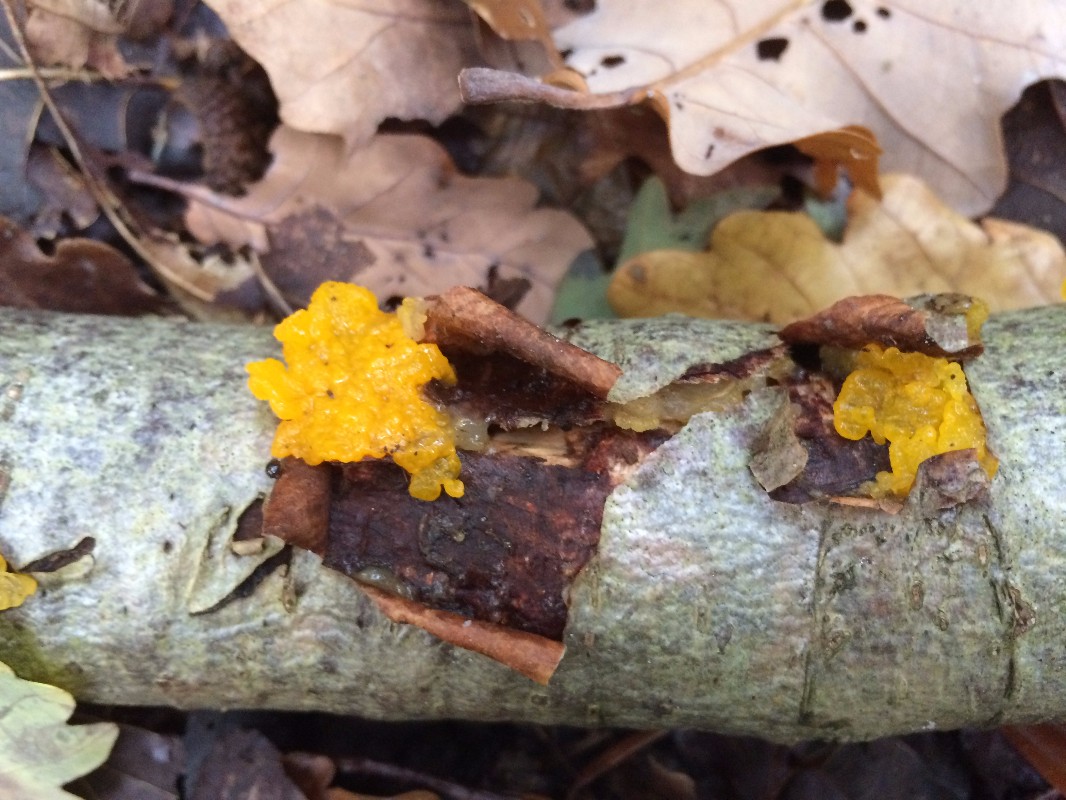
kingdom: Fungi
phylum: Basidiomycota
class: Tremellomycetes
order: Tremellales
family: Tremellaceae
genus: Tremella
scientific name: Tremella mesenterica
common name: gul bævresvamp
